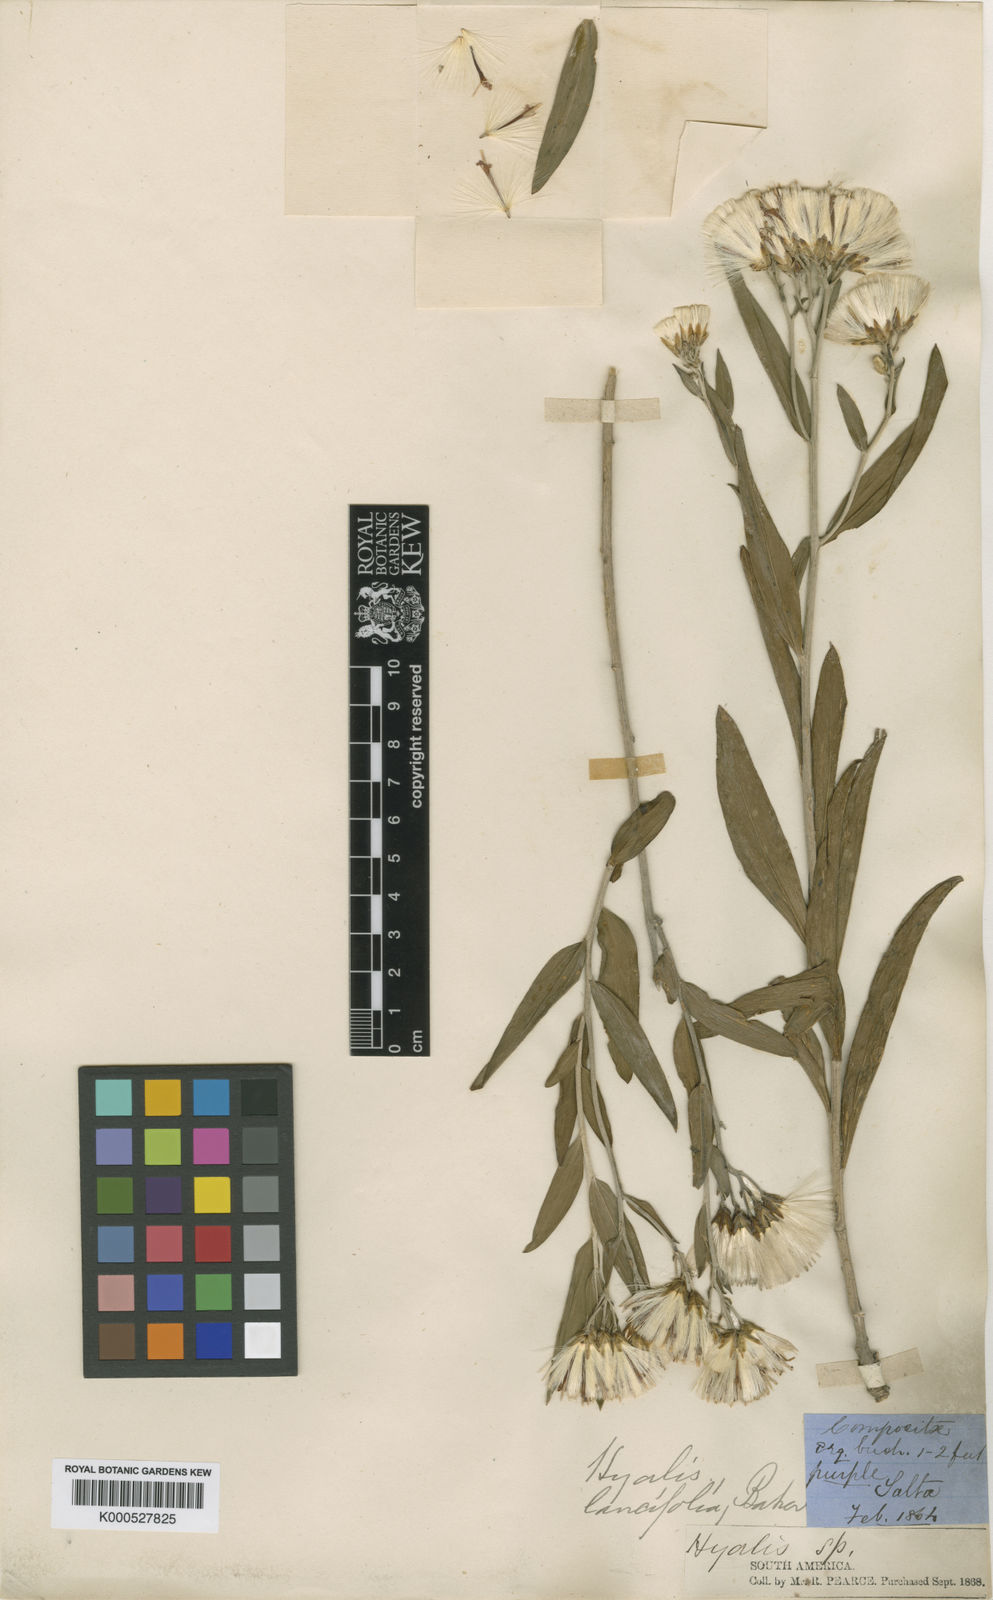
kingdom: Plantae
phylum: Tracheophyta
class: Magnoliopsida
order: Asterales
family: Asteraceae
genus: Hyalis
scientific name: Hyalis lancifolia
